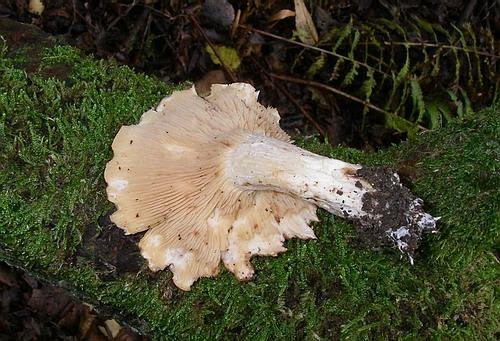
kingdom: Fungi
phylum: Basidiomycota
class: Agaricomycetes
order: Agaricales
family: Entolomataceae
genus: Clitopilus
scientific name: Clitopilus geminus
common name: kødfarvet troldhat
